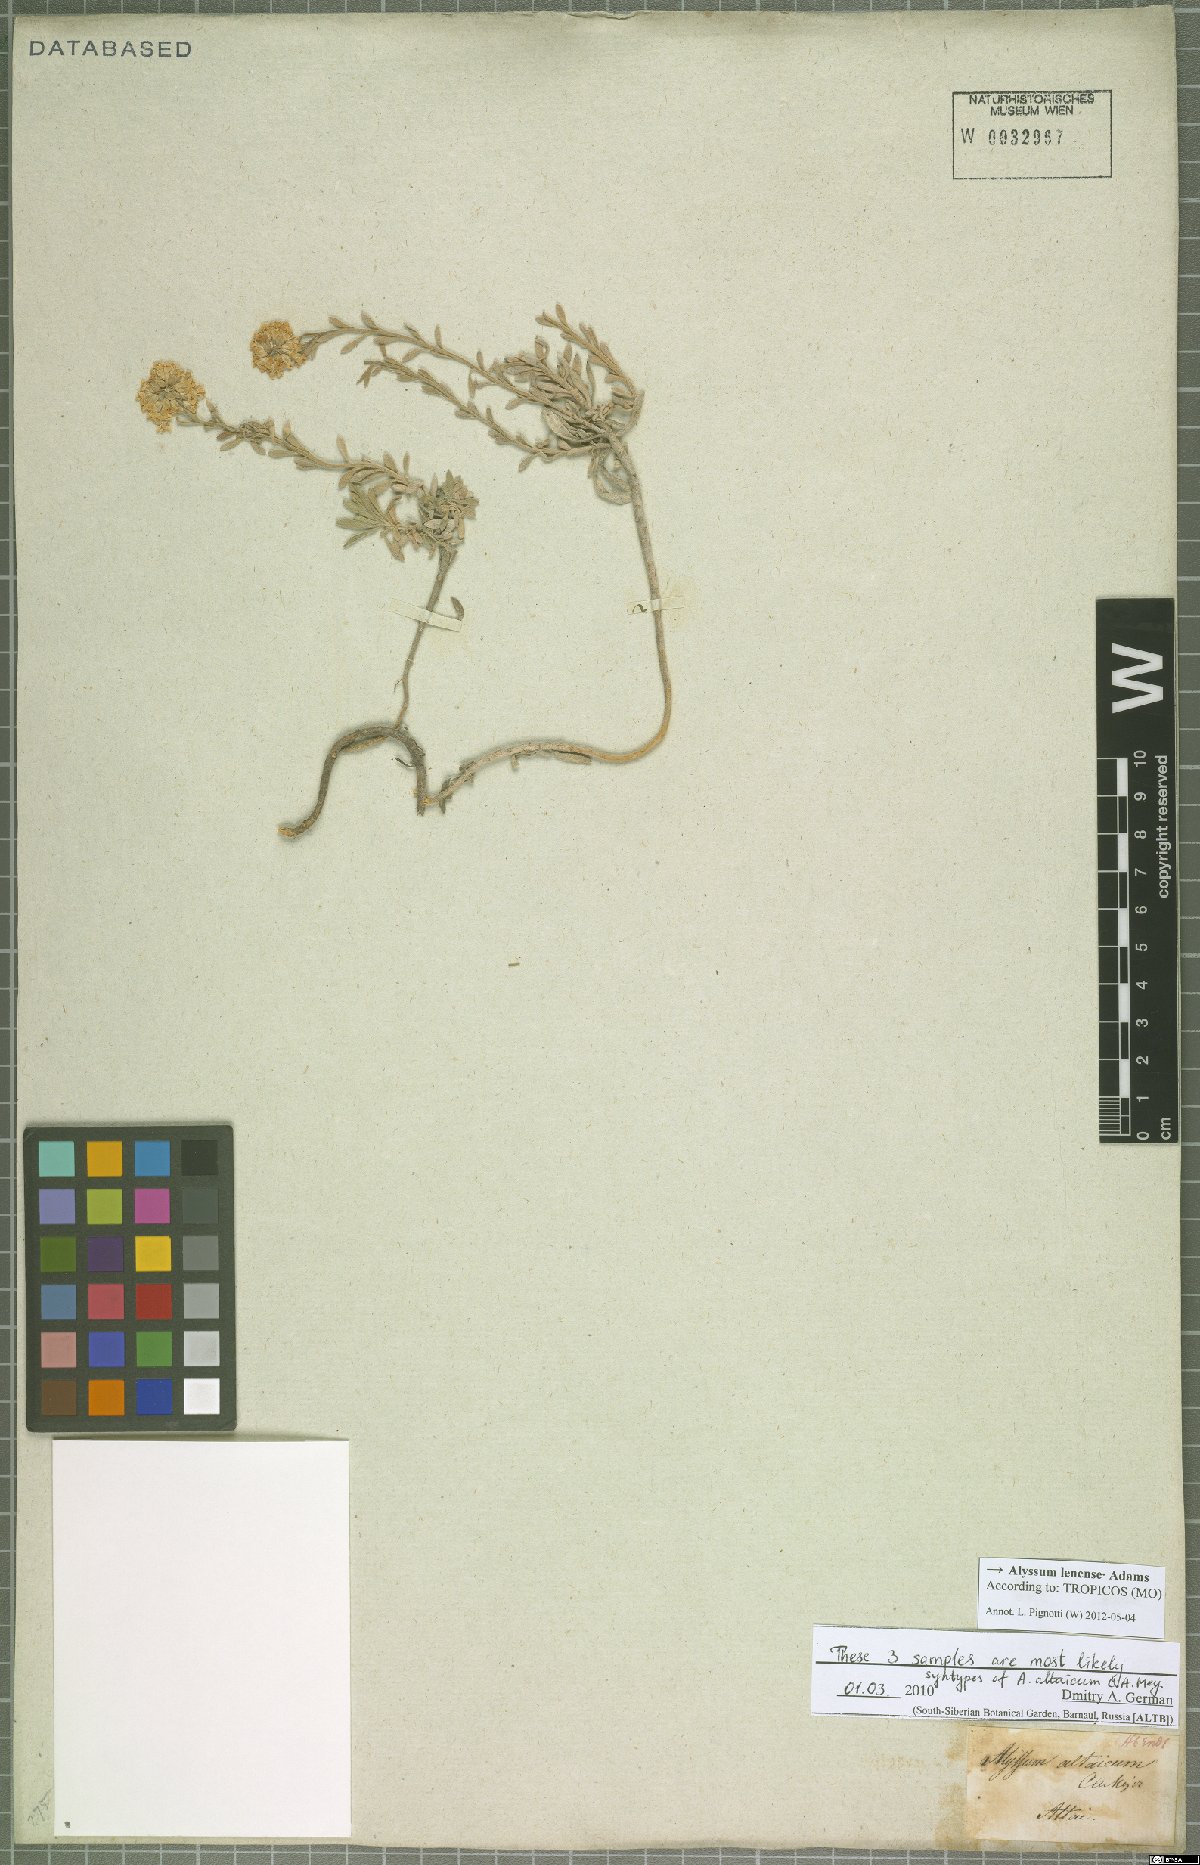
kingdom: Plantae
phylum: Tracheophyta
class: Magnoliopsida
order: Brassicales
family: Brassicaceae
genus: Alyssum
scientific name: Alyssum lenense
